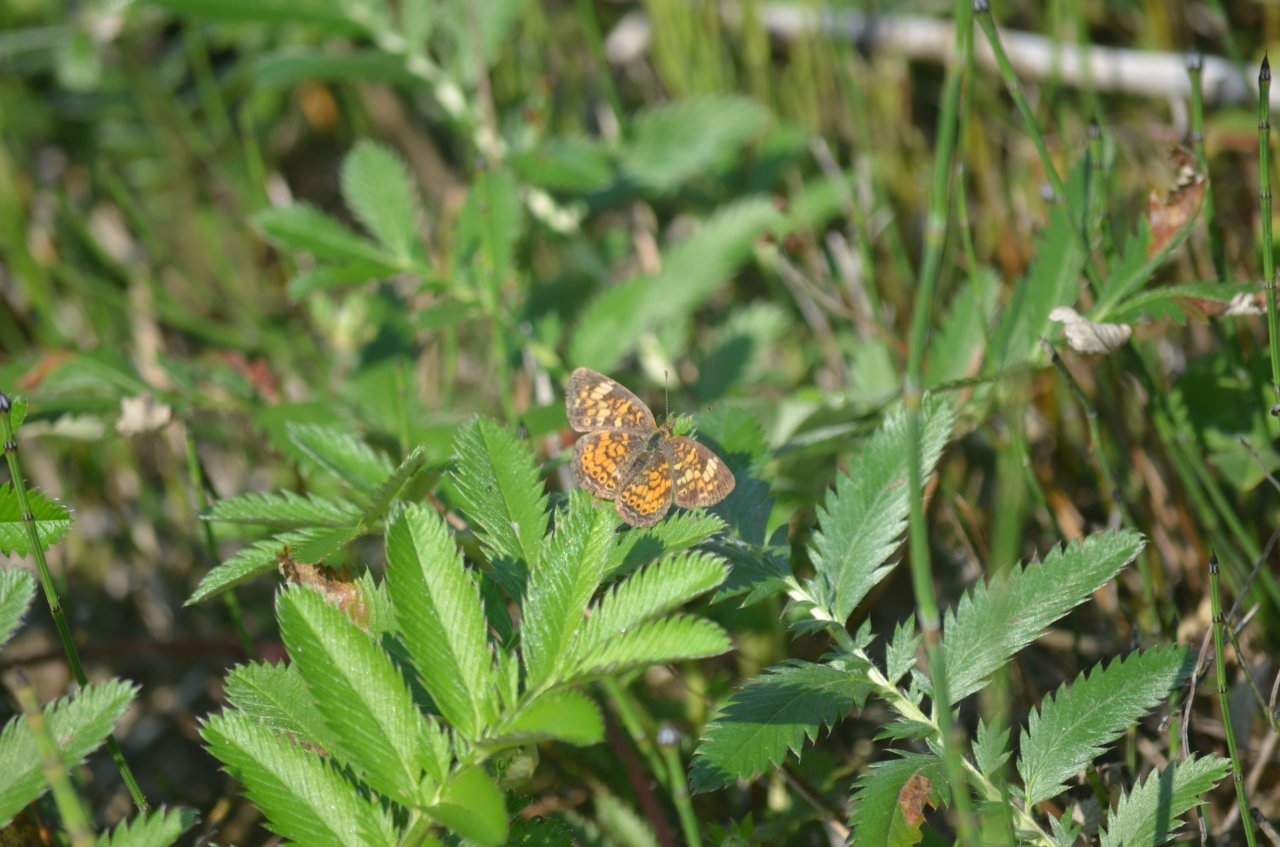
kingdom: Animalia
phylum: Arthropoda
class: Insecta
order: Lepidoptera
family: Nymphalidae
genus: Phyciodes
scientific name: Phyciodes tharos
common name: Pearl Crescent
